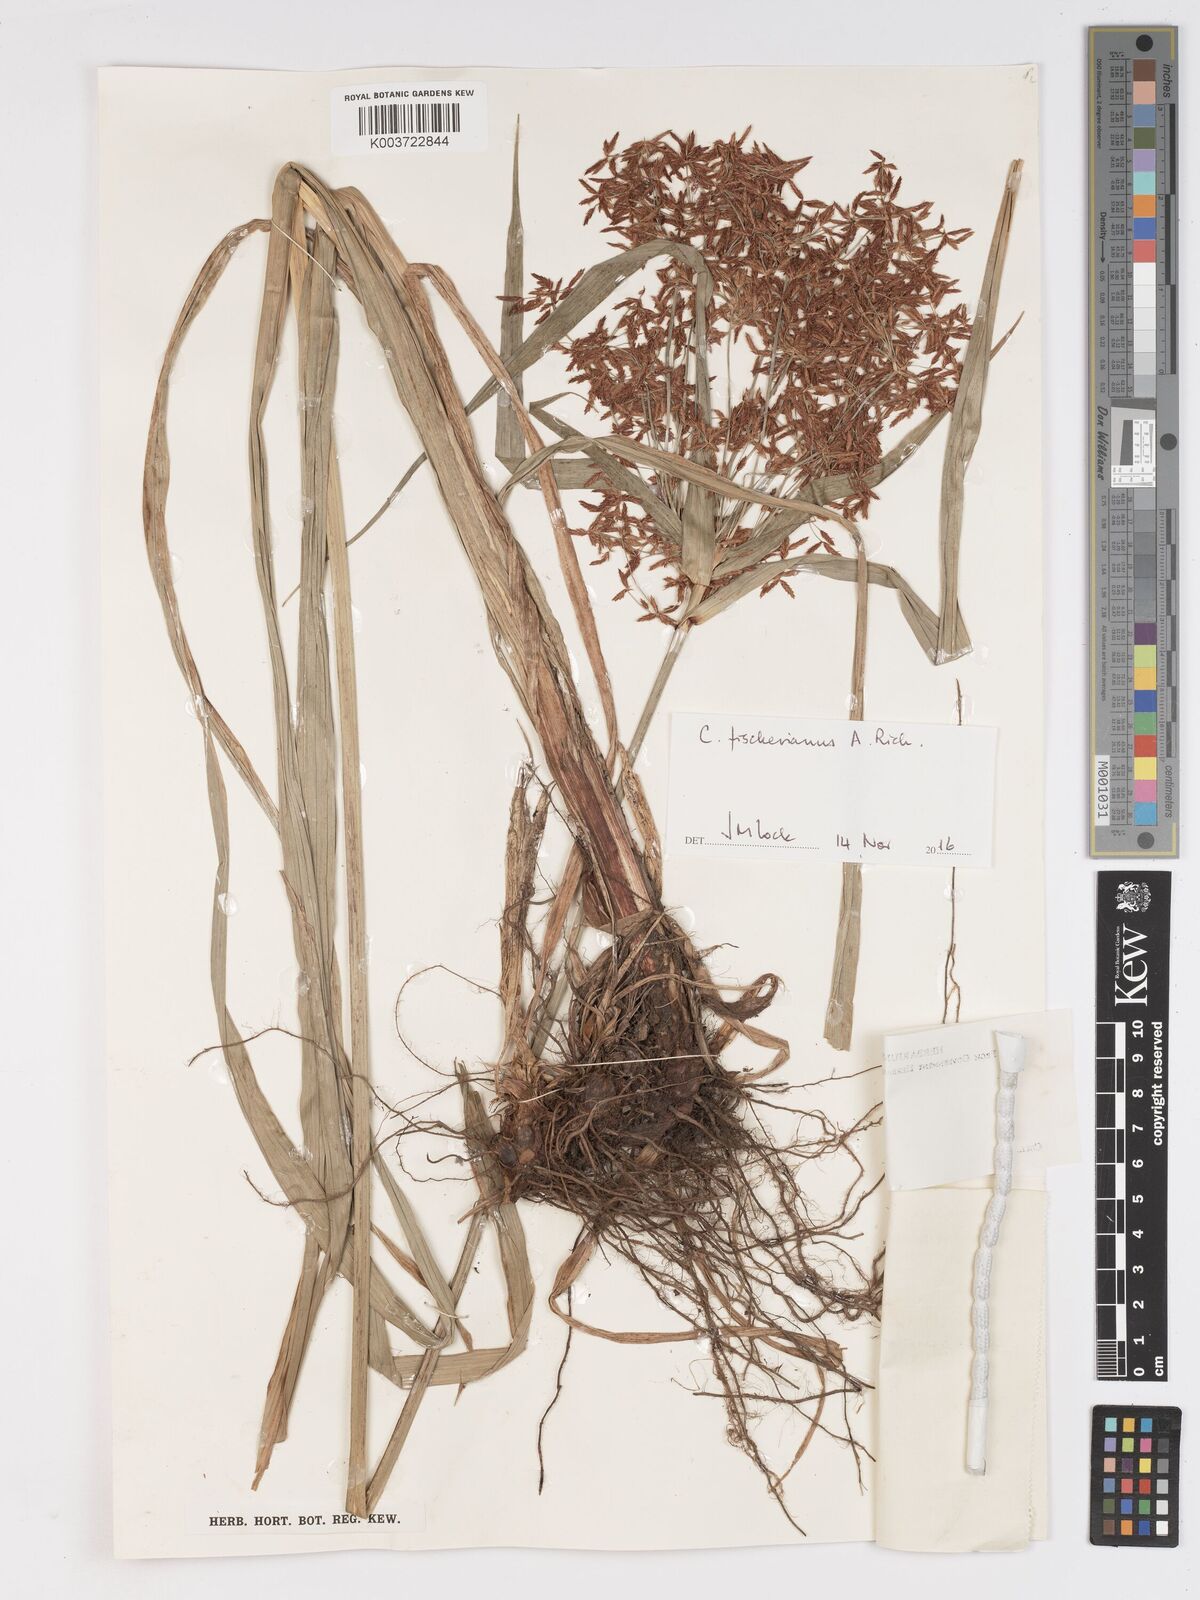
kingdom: Plantae
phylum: Tracheophyta
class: Liliopsida
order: Poales
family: Cyperaceae
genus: Cyperus
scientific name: Cyperus fischerianus
